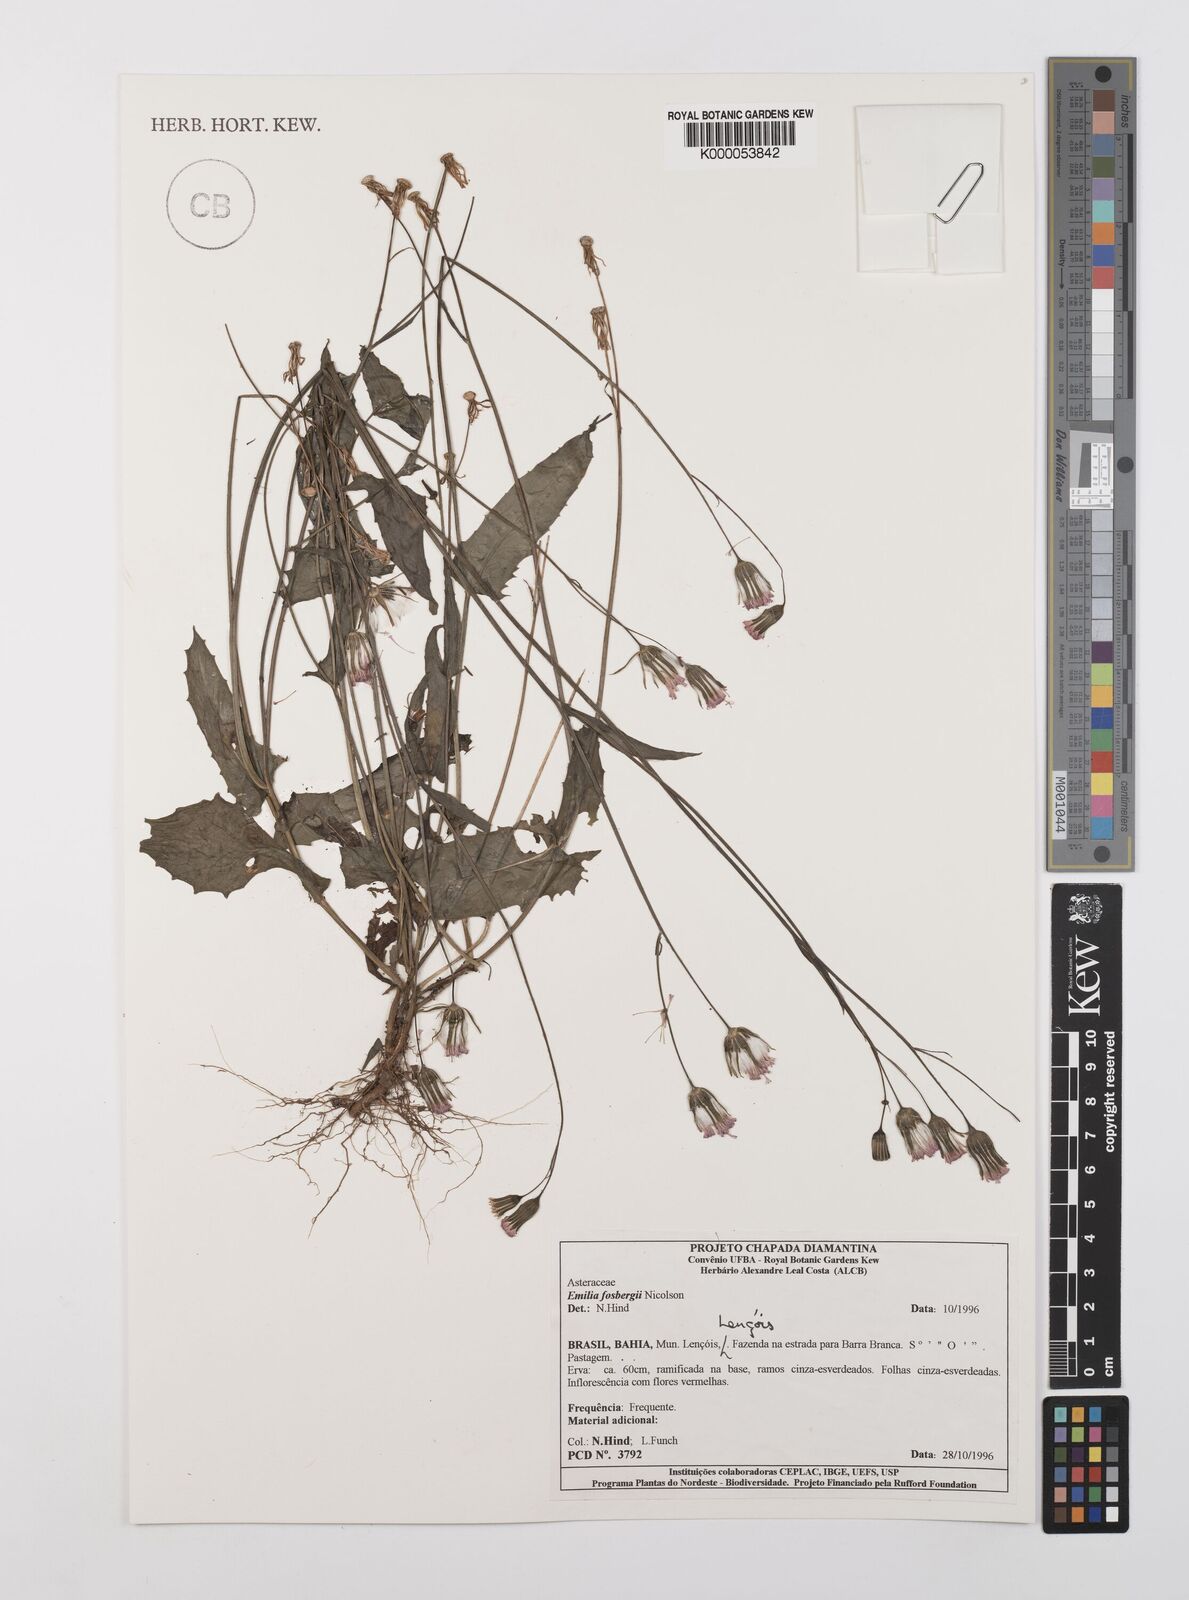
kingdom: Plantae
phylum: Tracheophyta
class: Magnoliopsida
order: Asterales
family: Asteraceae
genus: Emilia
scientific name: Emilia fosbergii
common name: Florida tasselflower
